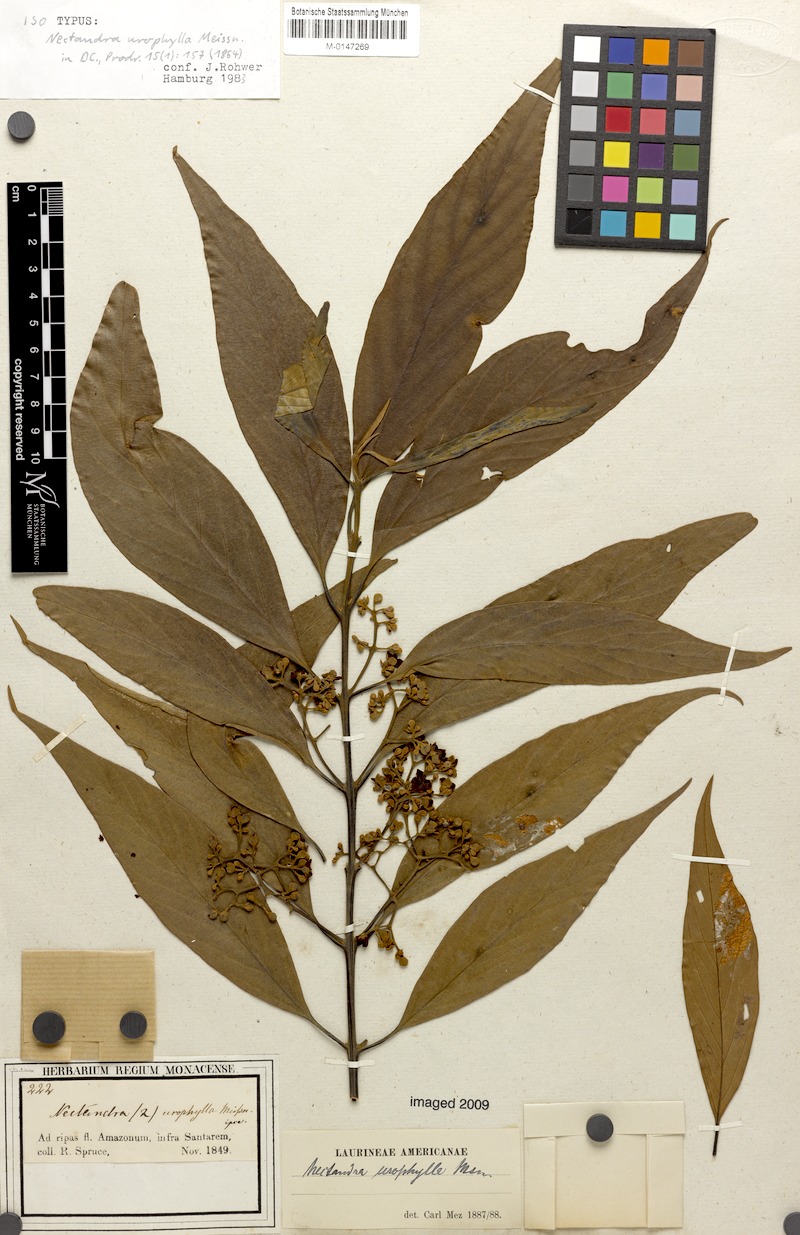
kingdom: Plantae
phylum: Tracheophyta
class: Magnoliopsida
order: Laurales
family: Lauraceae
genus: Nectandra
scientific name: Nectandra amazonum
